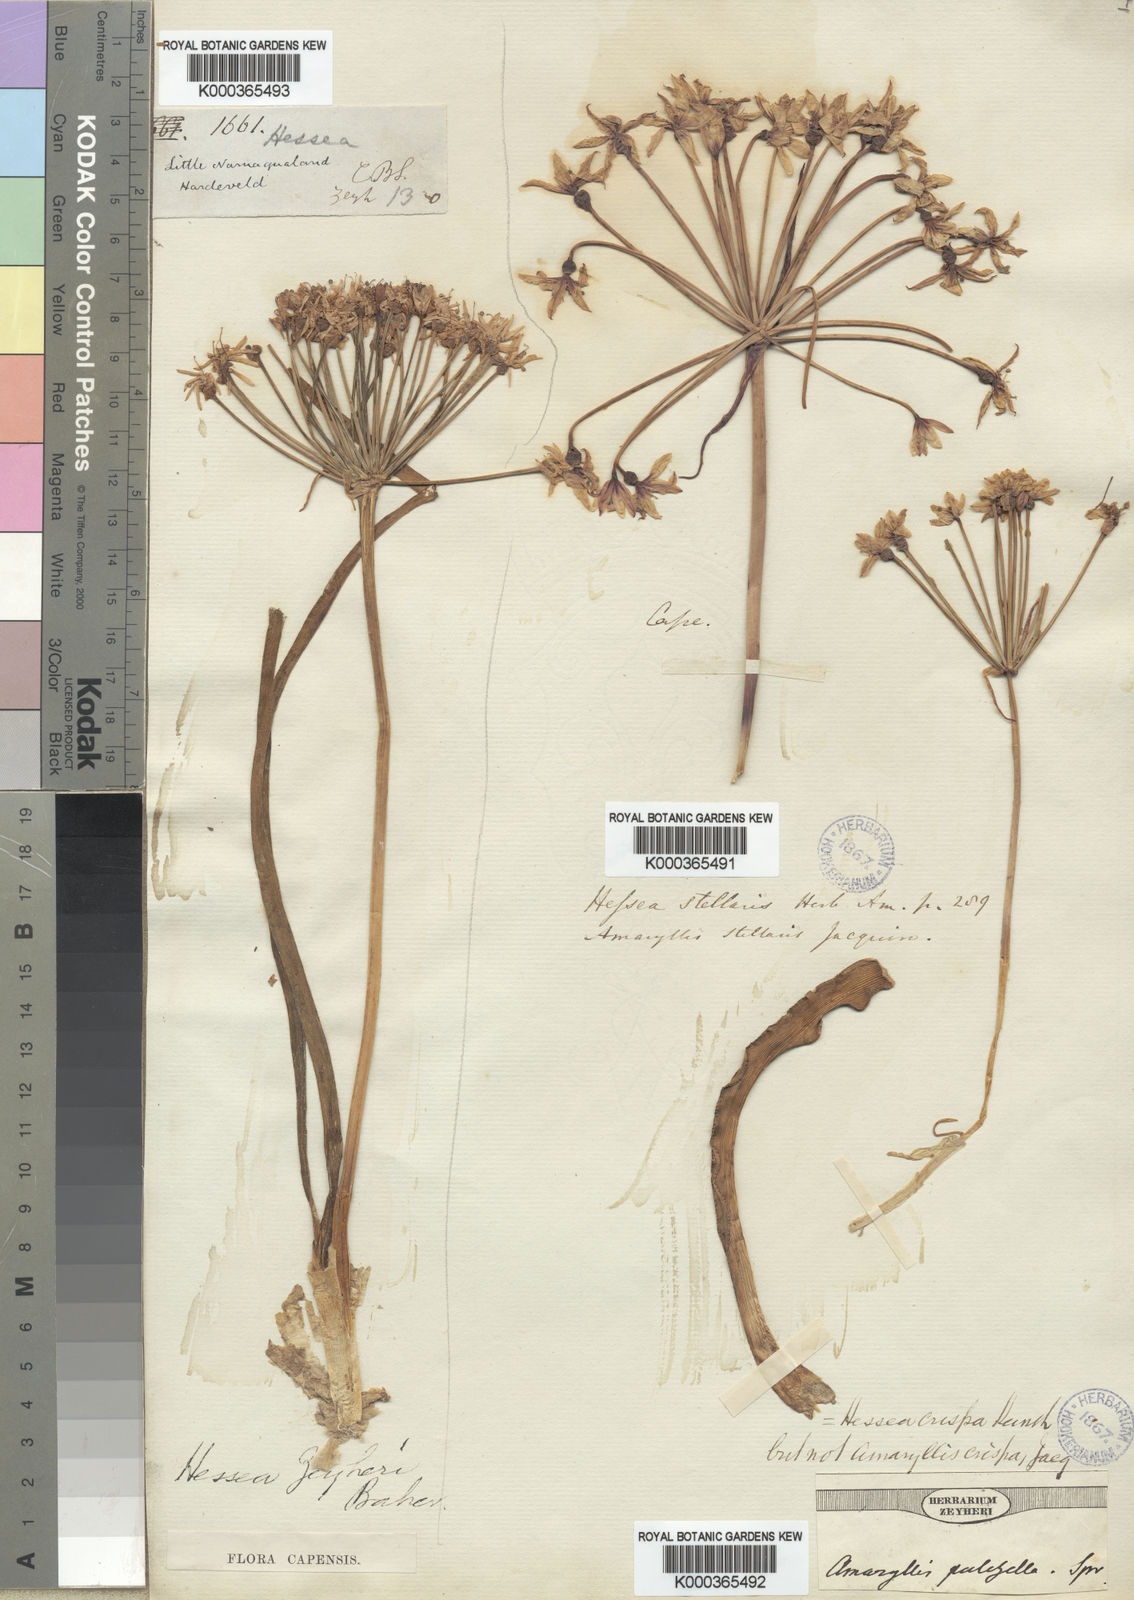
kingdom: Plantae
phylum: Tracheophyta
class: Liliopsida
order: Asparagales
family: Amaryllidaceae
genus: Hessea
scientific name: Hessea breviflora
